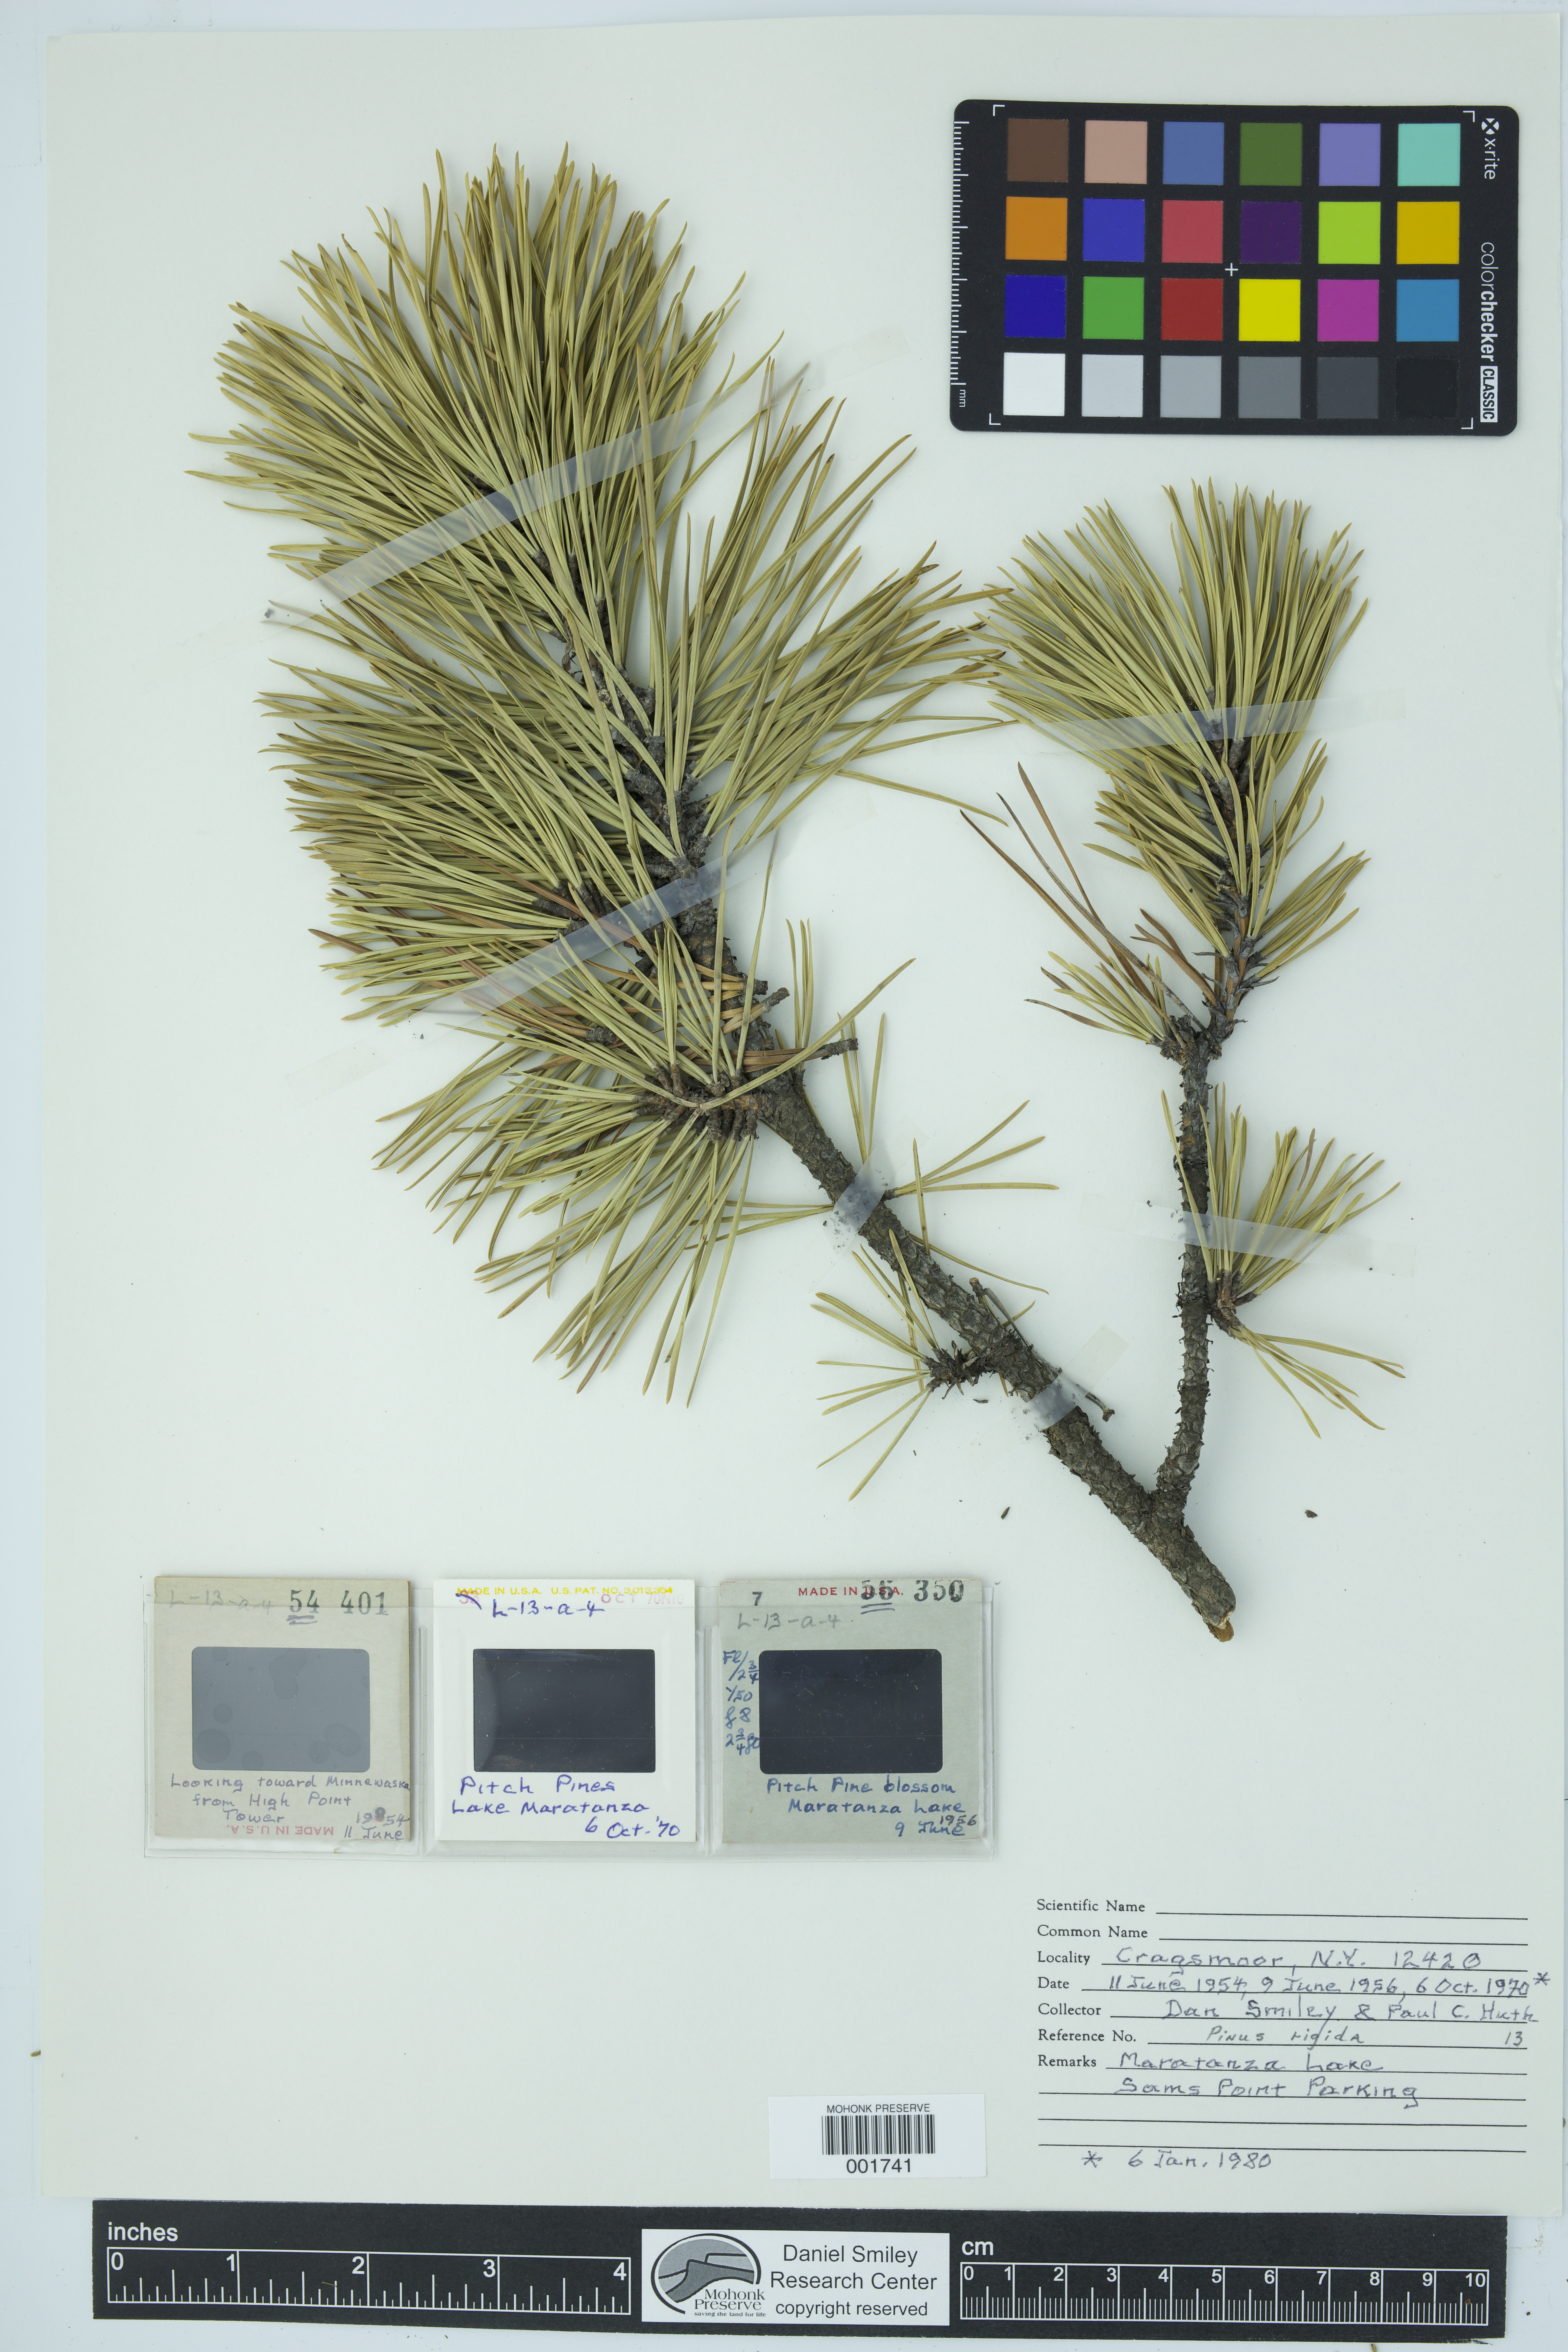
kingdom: Plantae
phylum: Tracheophyta
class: Pinopsida
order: Pinales
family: Pinaceae
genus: Pinus
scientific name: Pinus rigida
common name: Pitch pine
